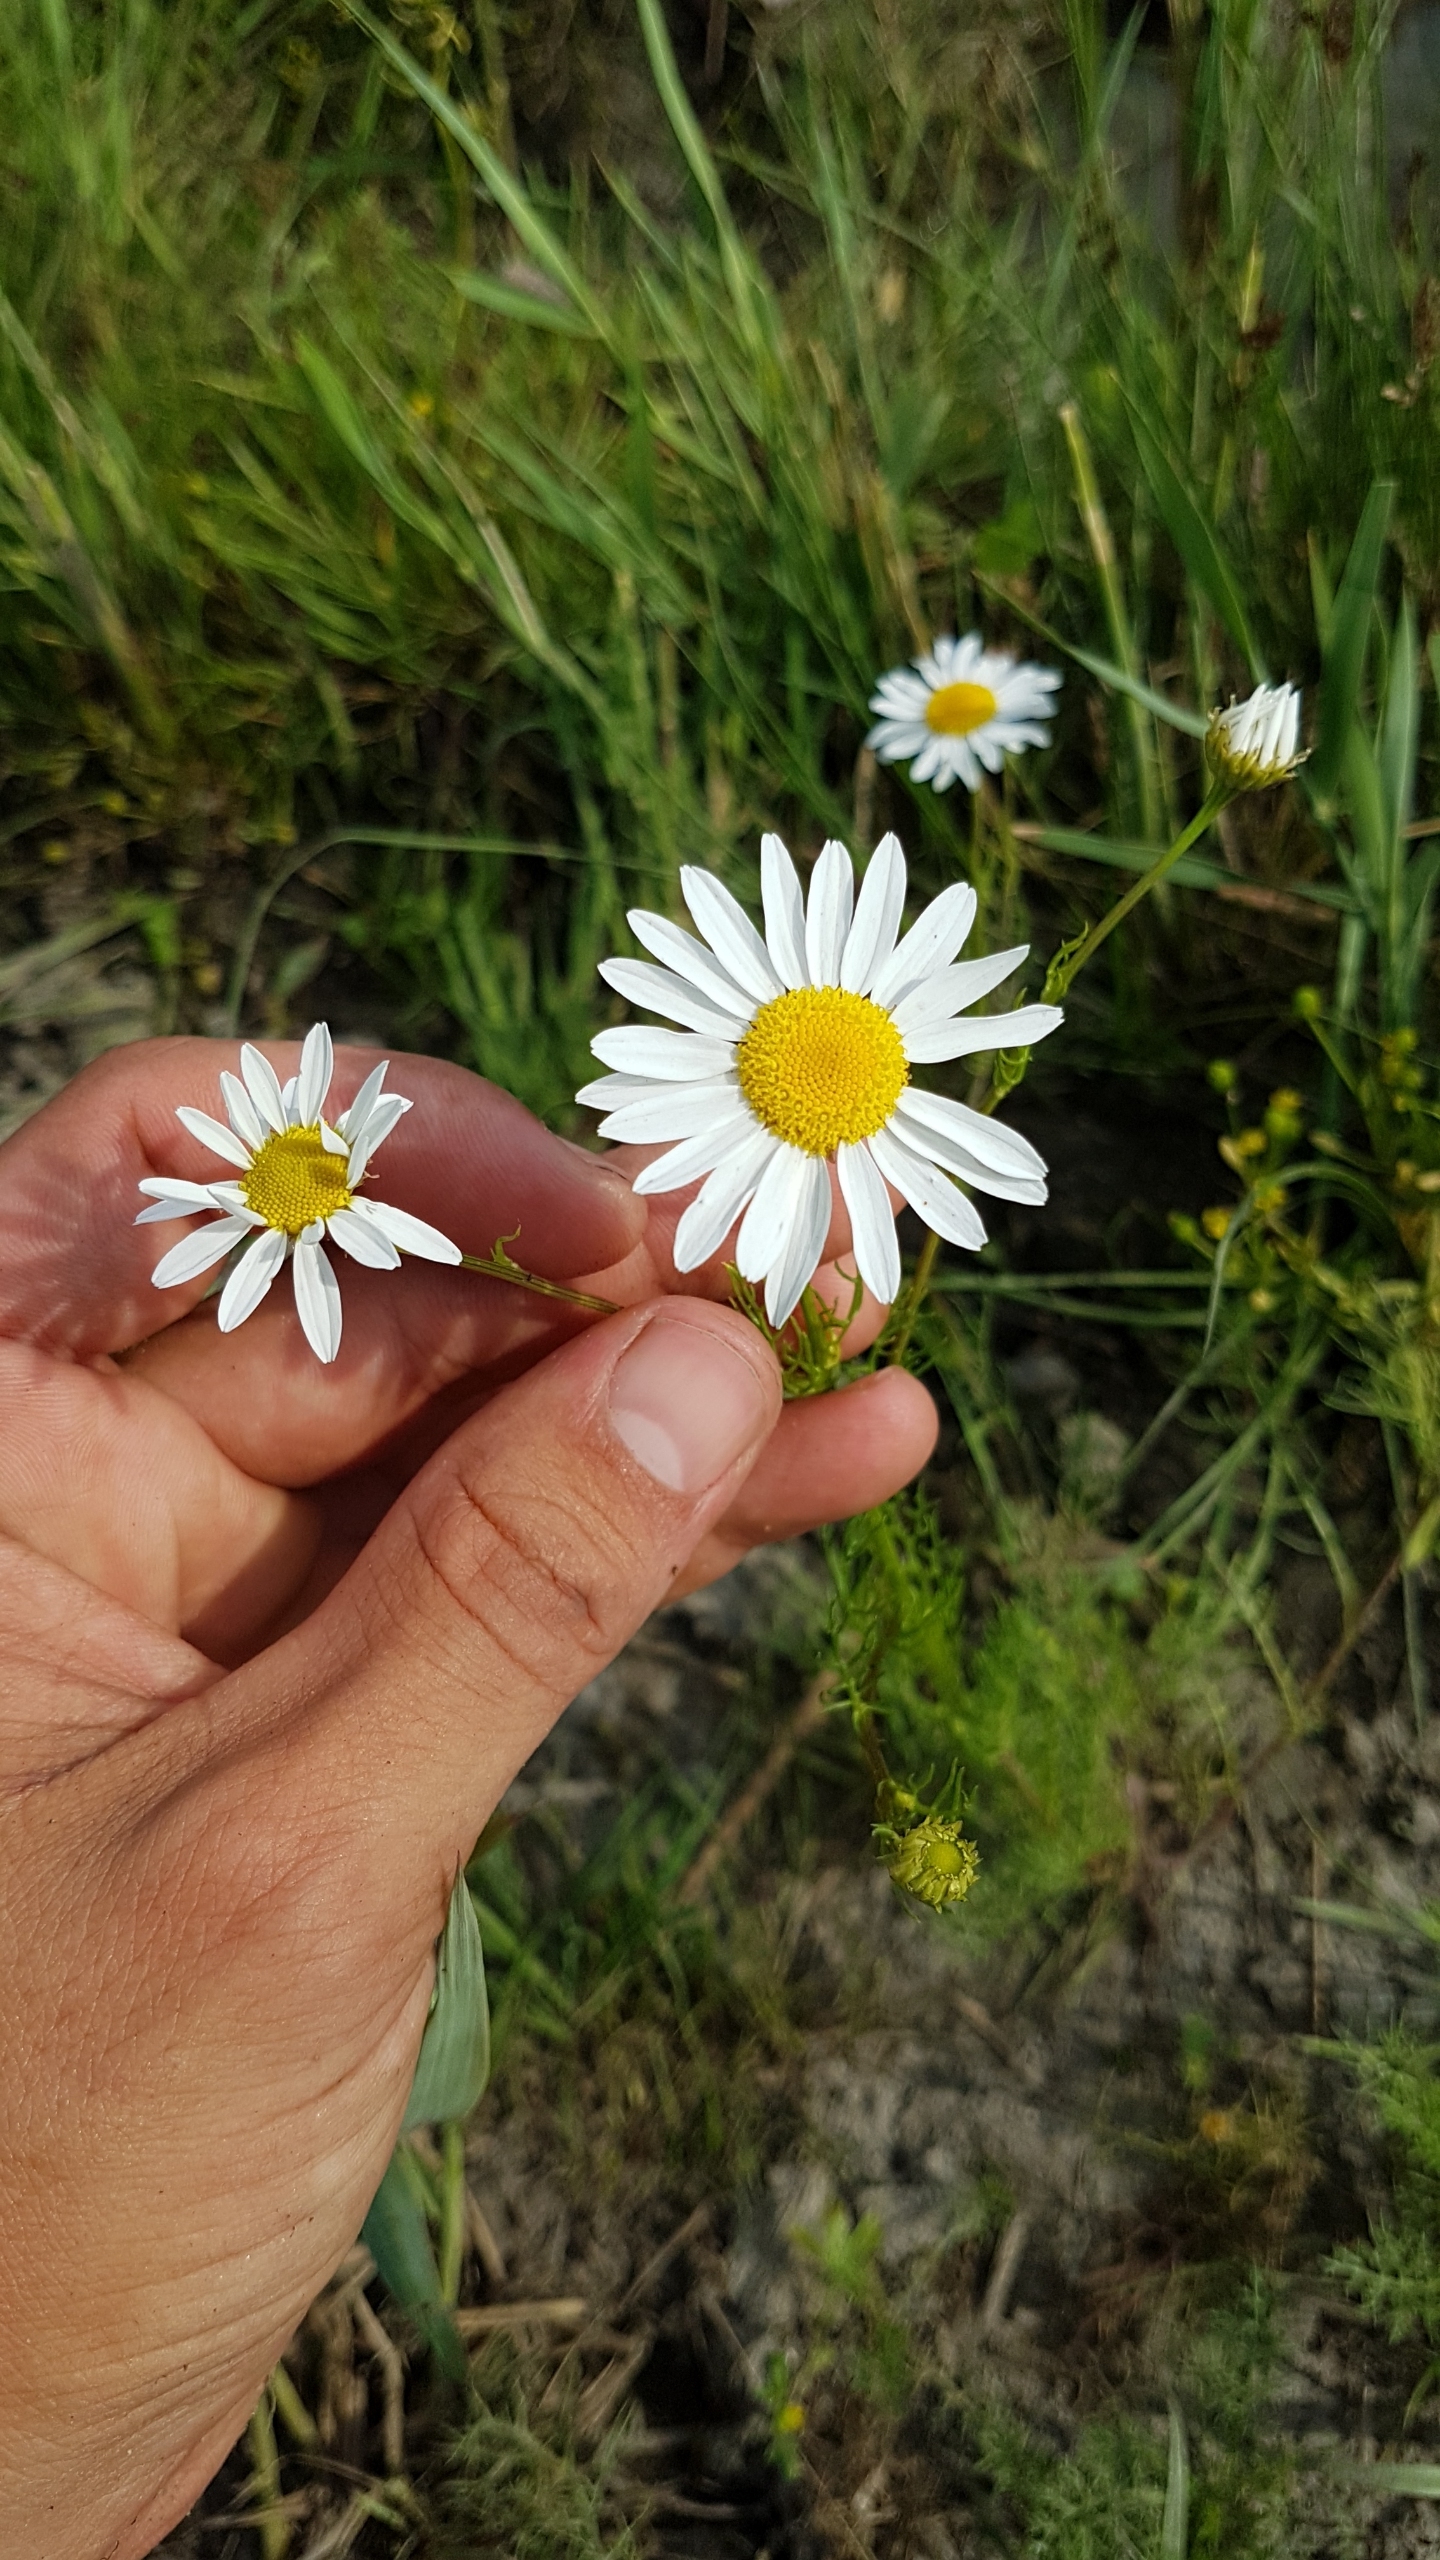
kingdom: Plantae
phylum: Tracheophyta
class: Magnoliopsida
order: Asterales
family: Asteraceae
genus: Tripleurospermum
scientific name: Tripleurospermum inodorum
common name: Lugtløs kamille
